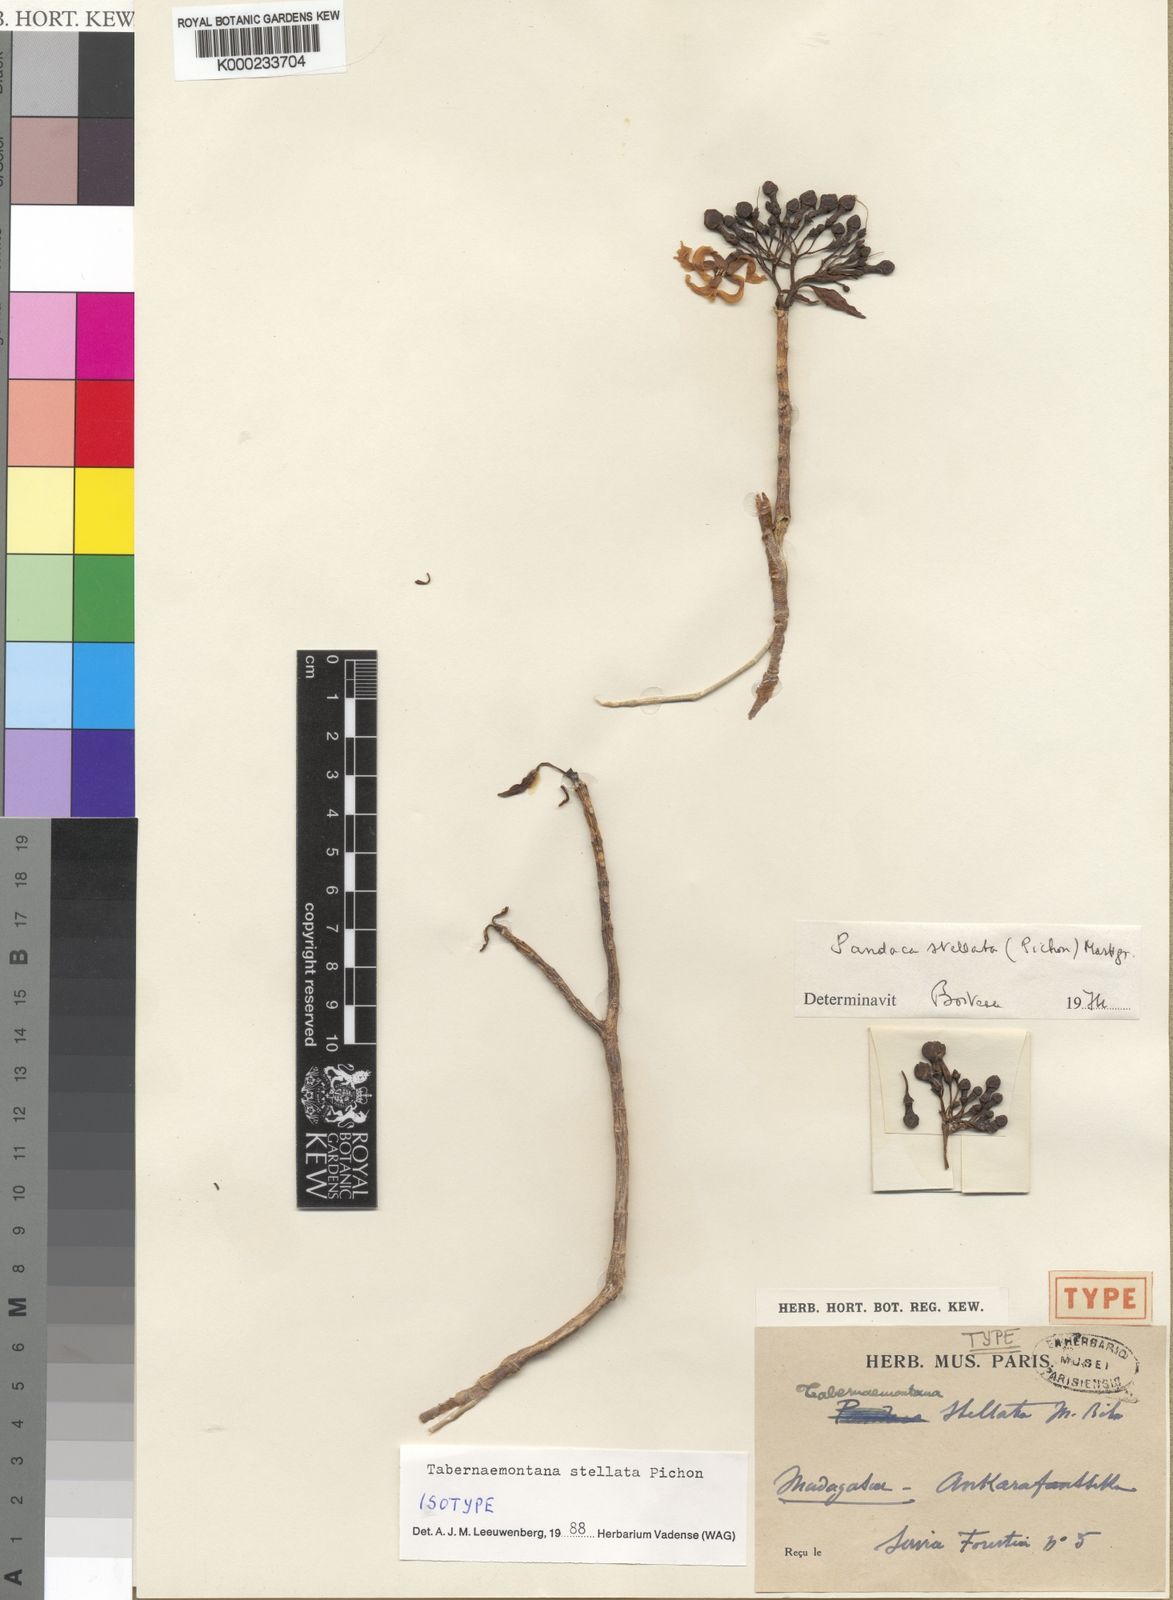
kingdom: Plantae
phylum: Tracheophyta
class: Magnoliopsida
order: Gentianales
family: Apocynaceae
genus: Tabernaemontana
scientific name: Tabernaemontana stellata
